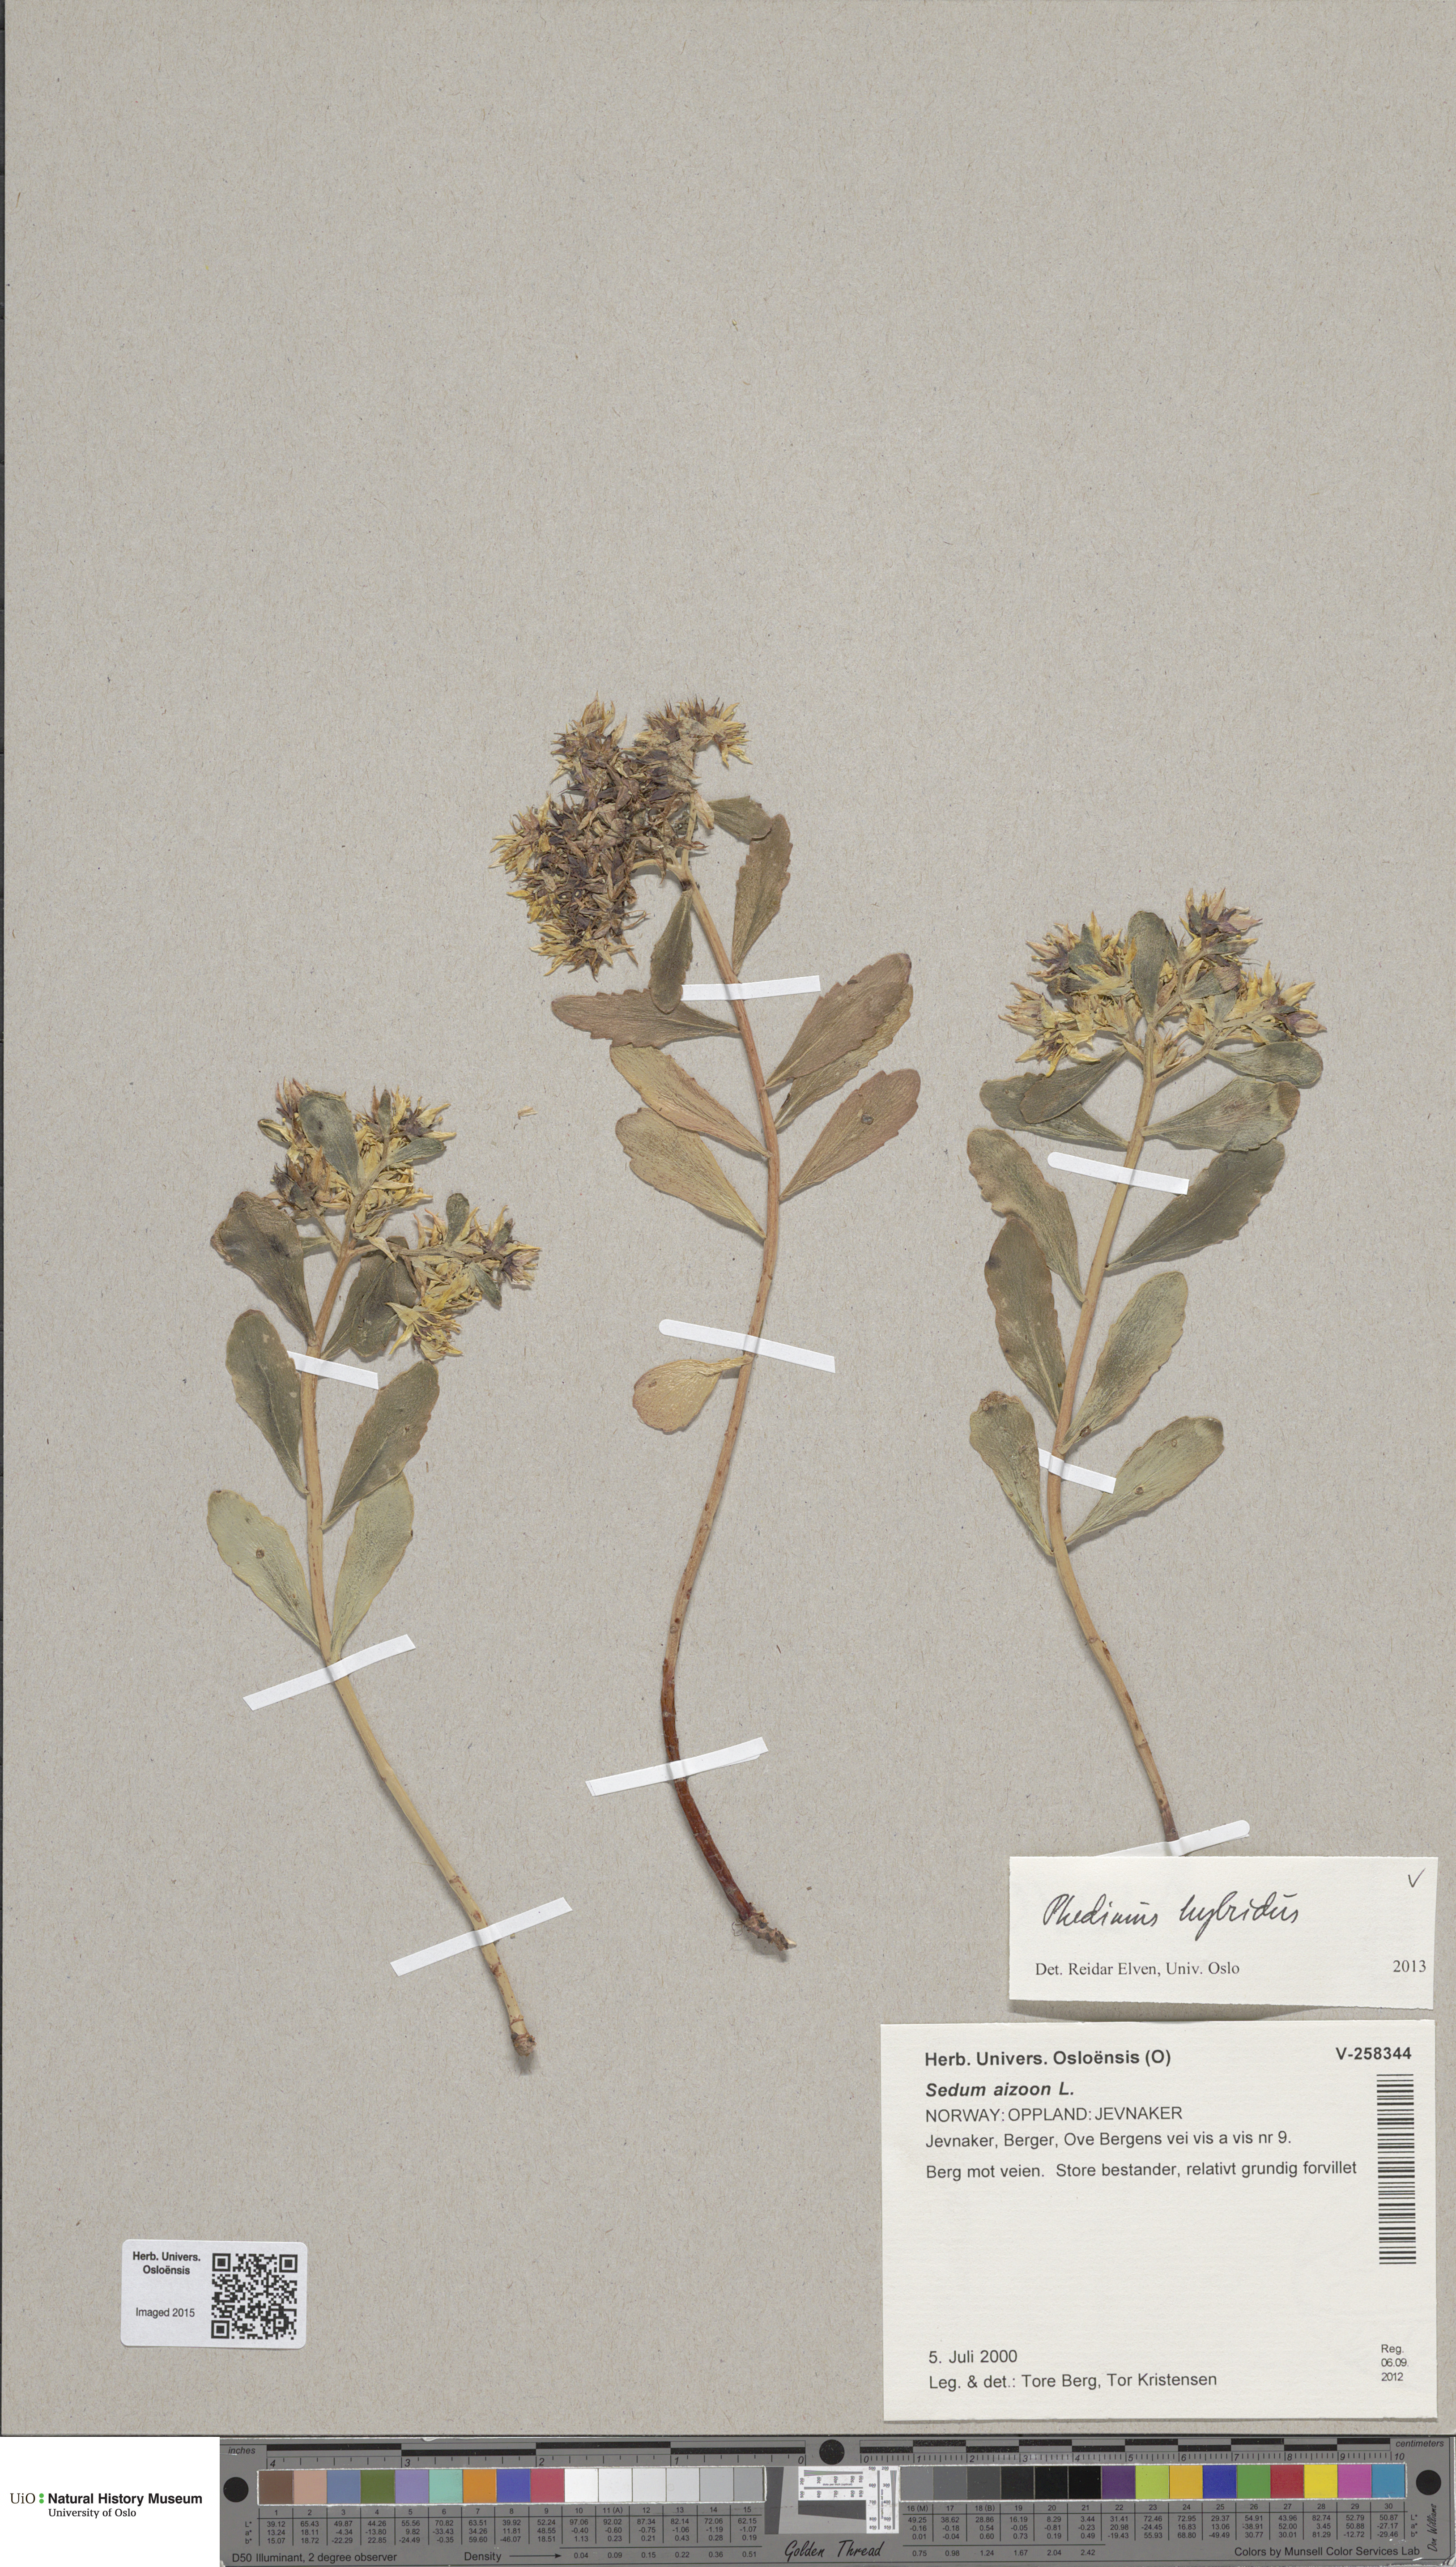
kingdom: Plantae
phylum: Tracheophyta
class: Magnoliopsida
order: Saxifragales
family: Crassulaceae
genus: Phedimus
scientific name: Phedimus hybridus
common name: Hybrid stonecrop
